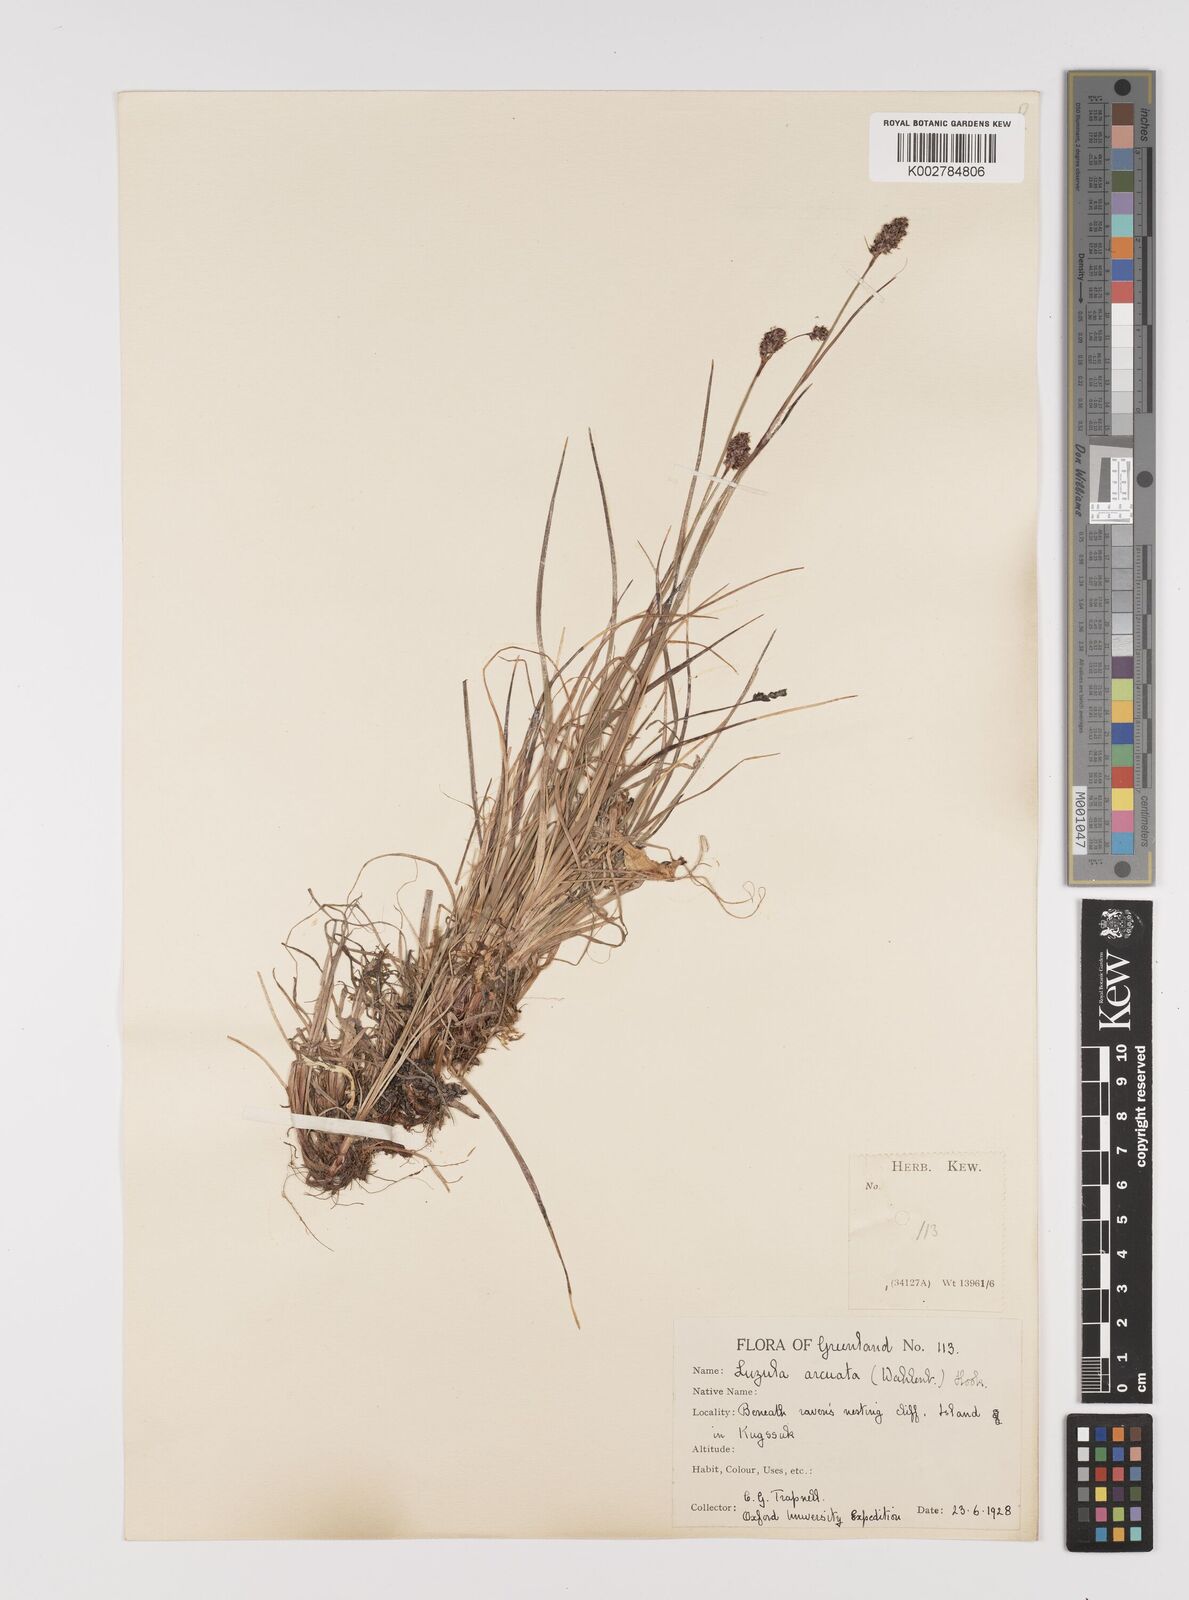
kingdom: Plantae
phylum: Tracheophyta
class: Liliopsida
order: Poales
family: Juncaceae
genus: Luzula
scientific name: Luzula confusa
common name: Northern wood rush
